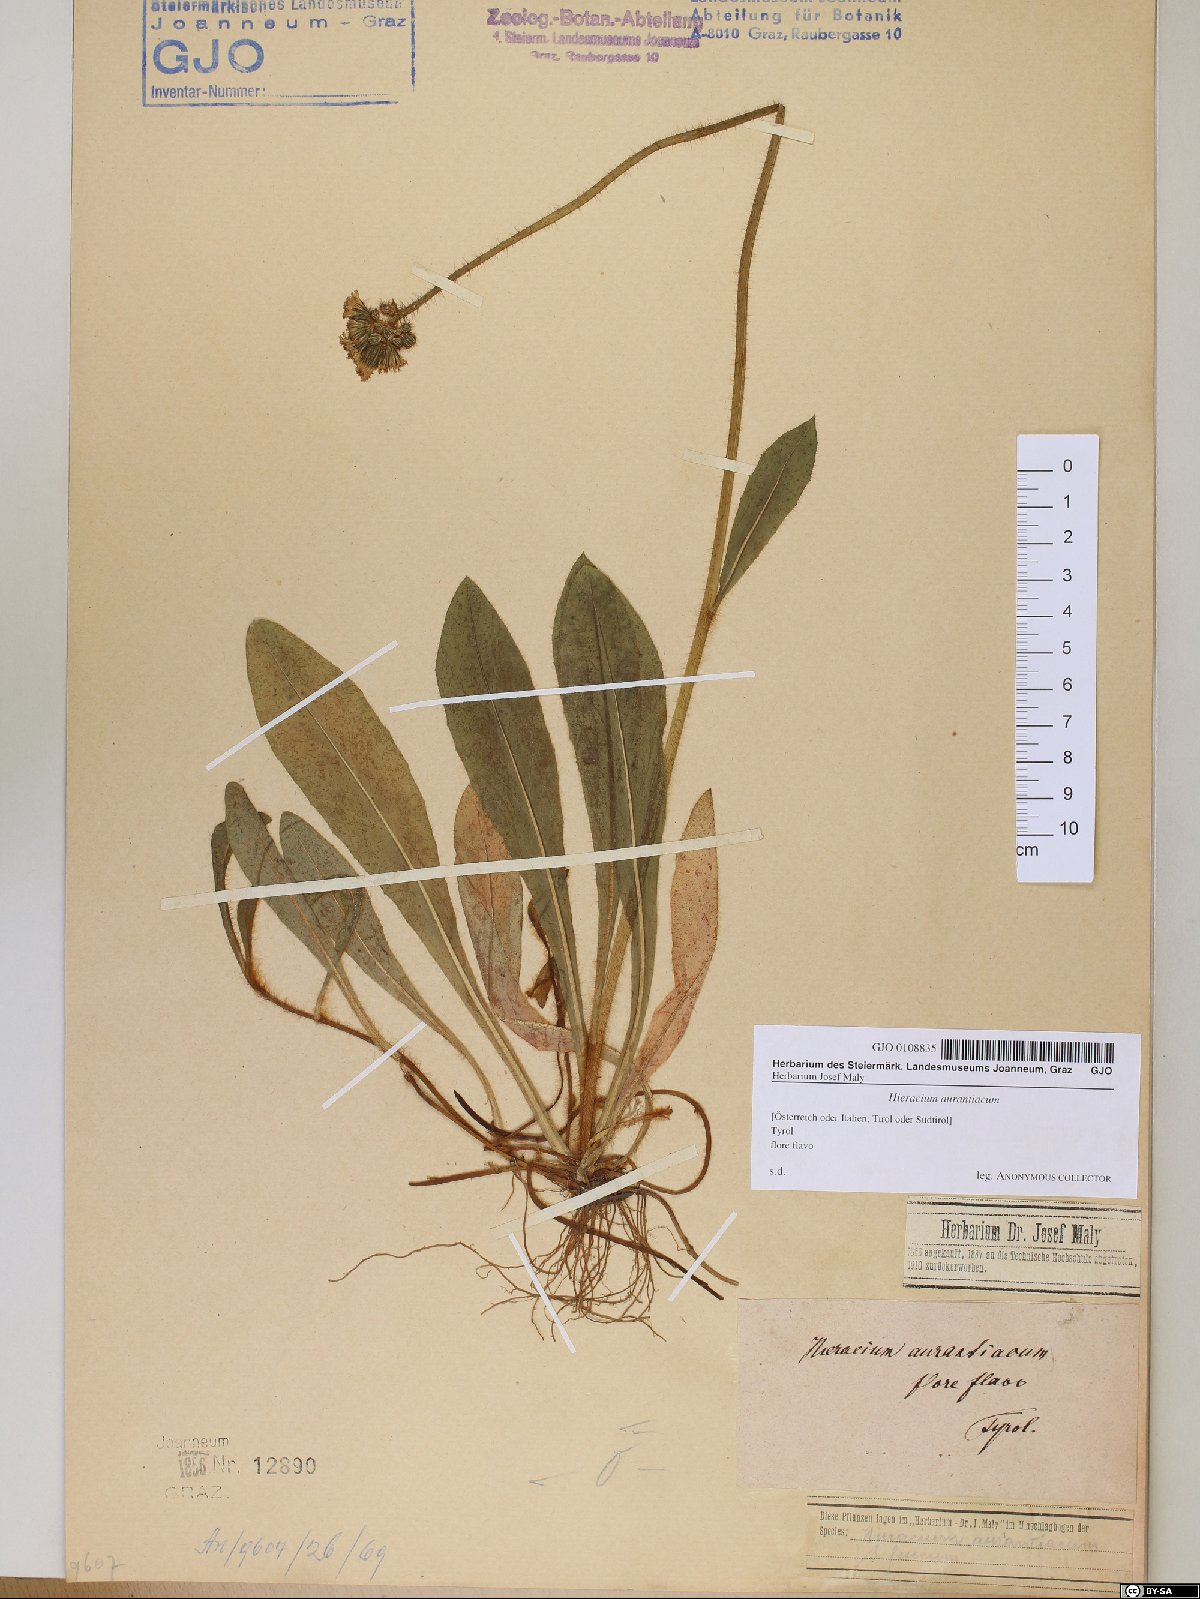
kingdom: Plantae
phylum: Tracheophyta
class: Magnoliopsida
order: Asterales
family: Asteraceae
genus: Pilosella
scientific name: Pilosella aurantiaca
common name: Fox-and-cubs
